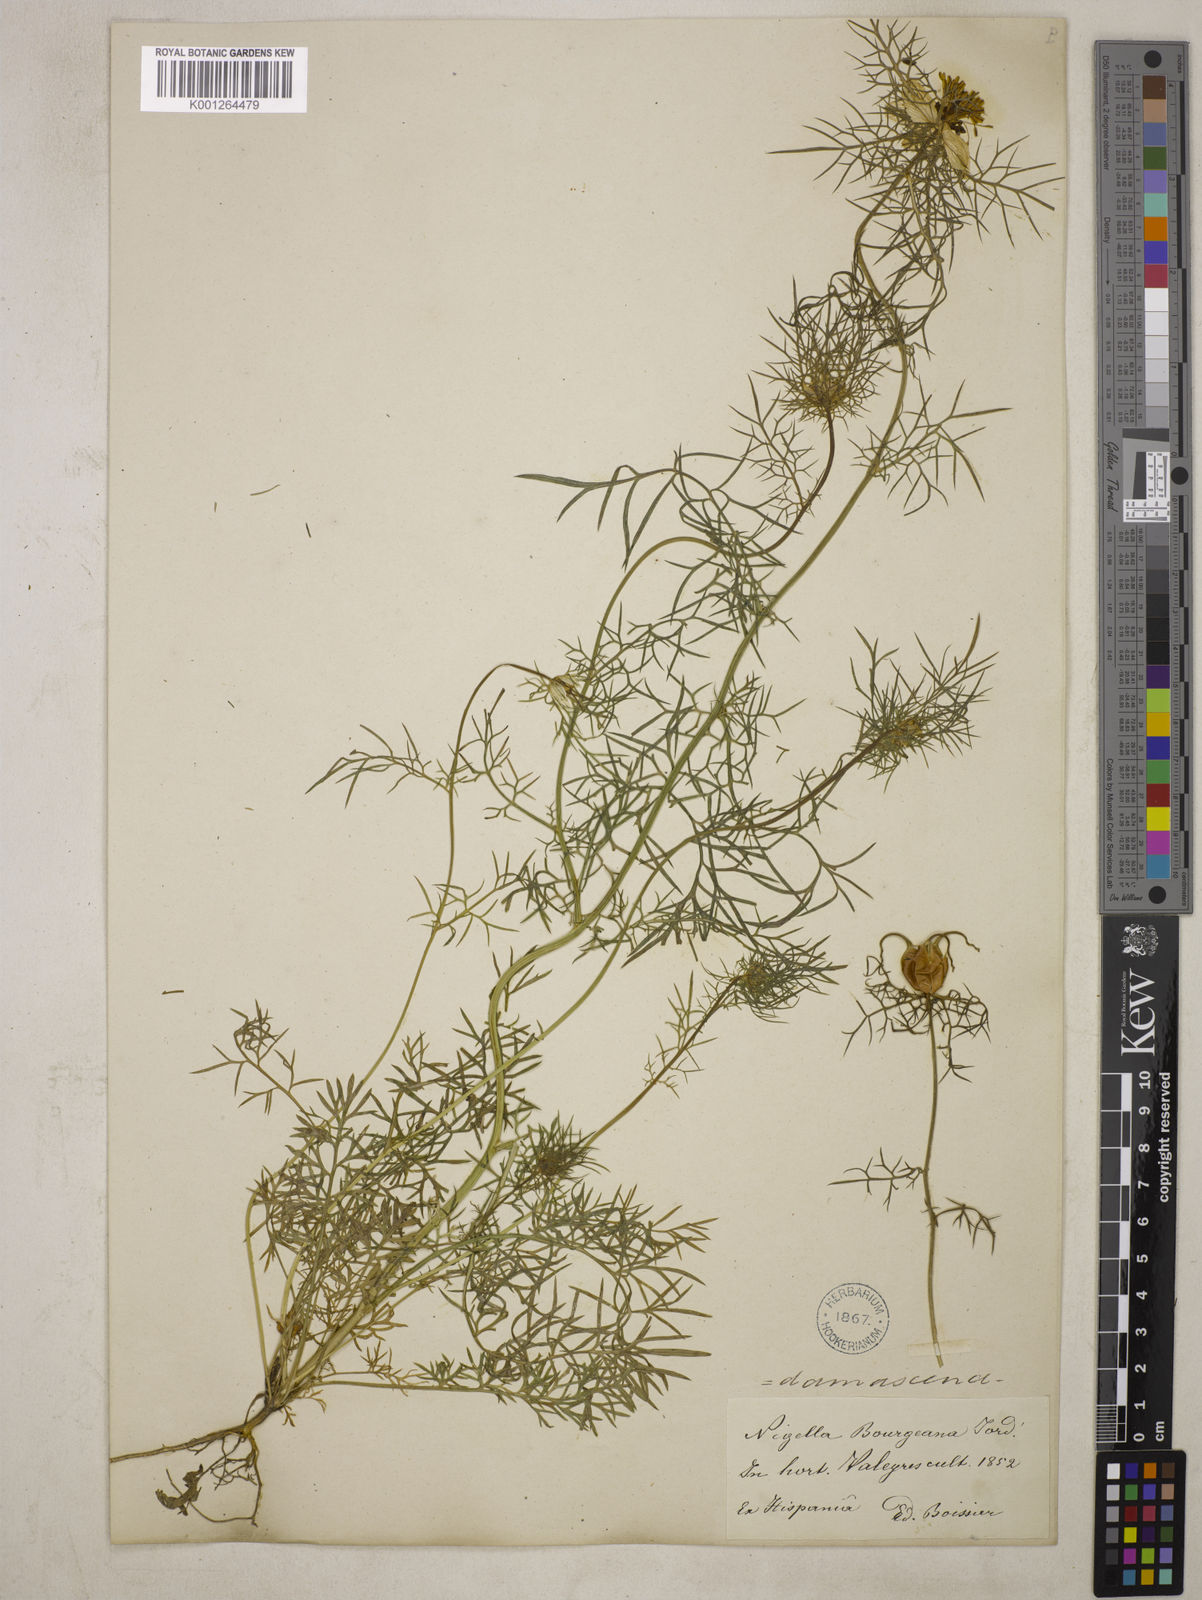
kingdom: Plantae
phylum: Tracheophyta
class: Magnoliopsida
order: Ranunculales
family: Ranunculaceae
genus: Nigella
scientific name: Nigella damascena
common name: Love-in-a-mist
